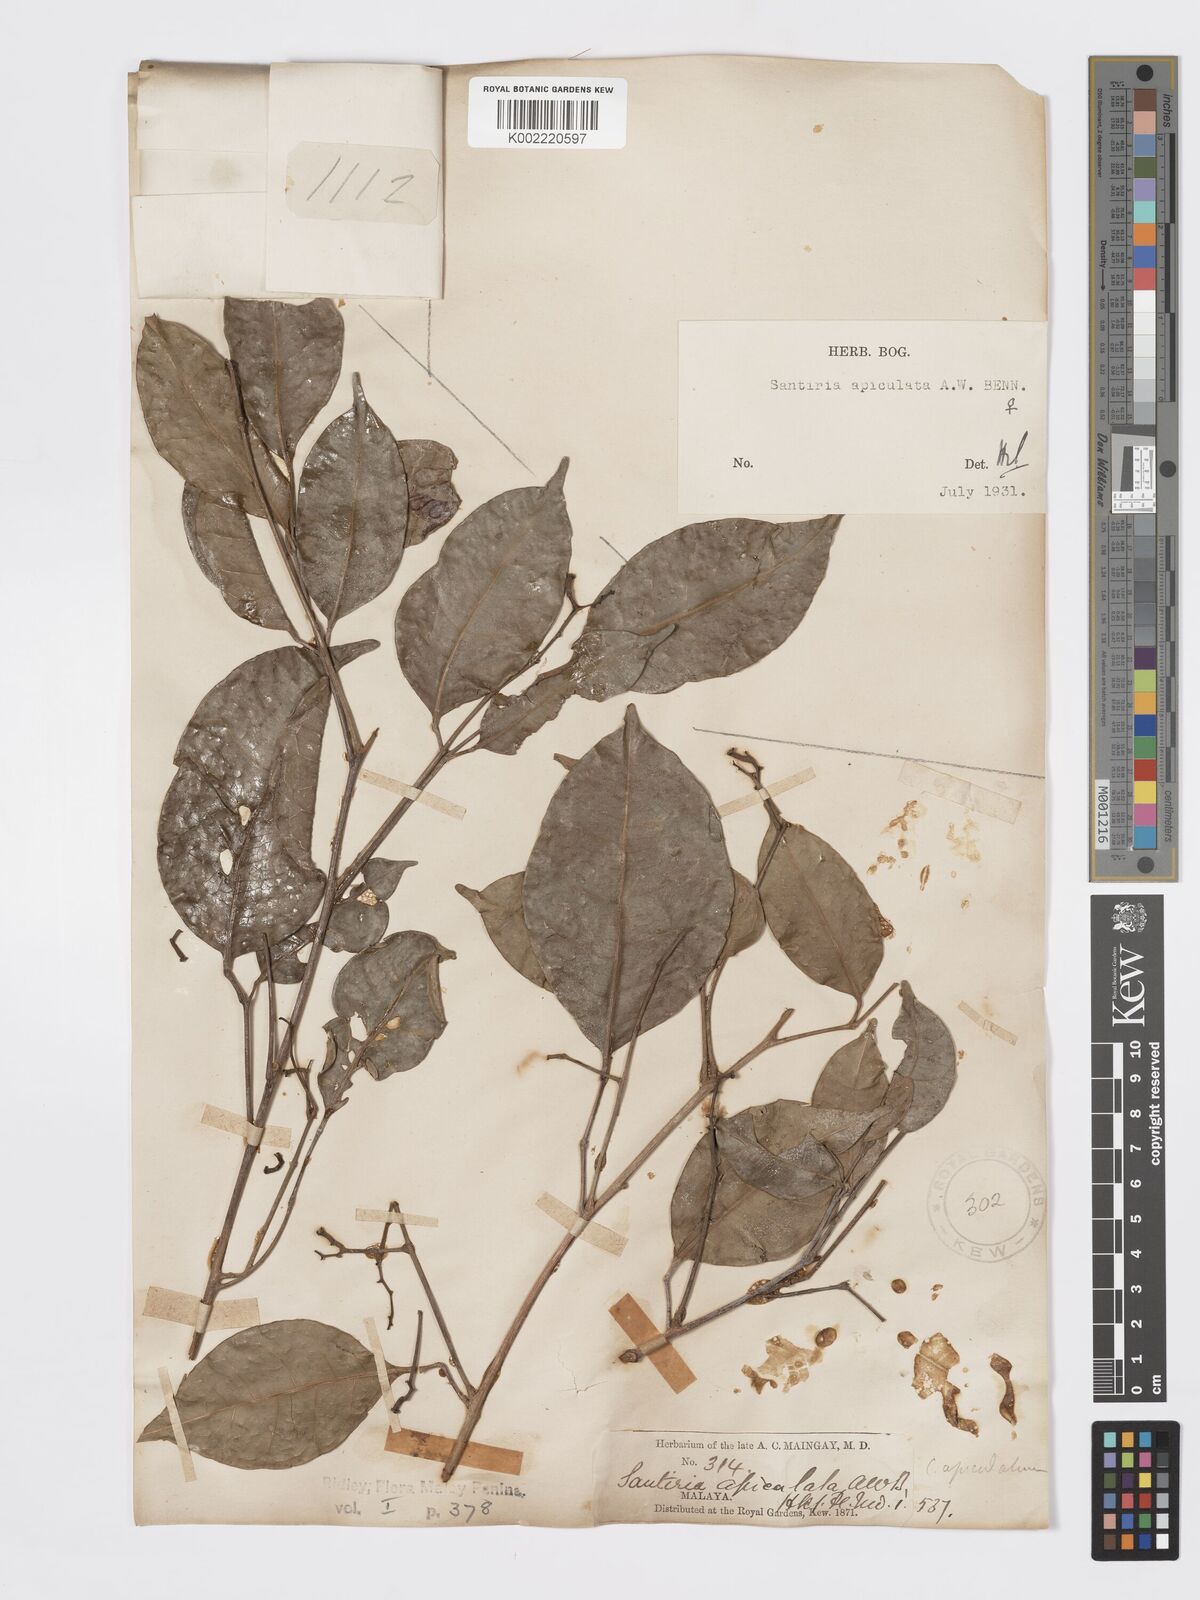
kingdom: Plantae
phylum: Tracheophyta
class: Magnoliopsida
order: Sapindales
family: Burseraceae
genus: Santiria
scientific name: Santiria apiculata
